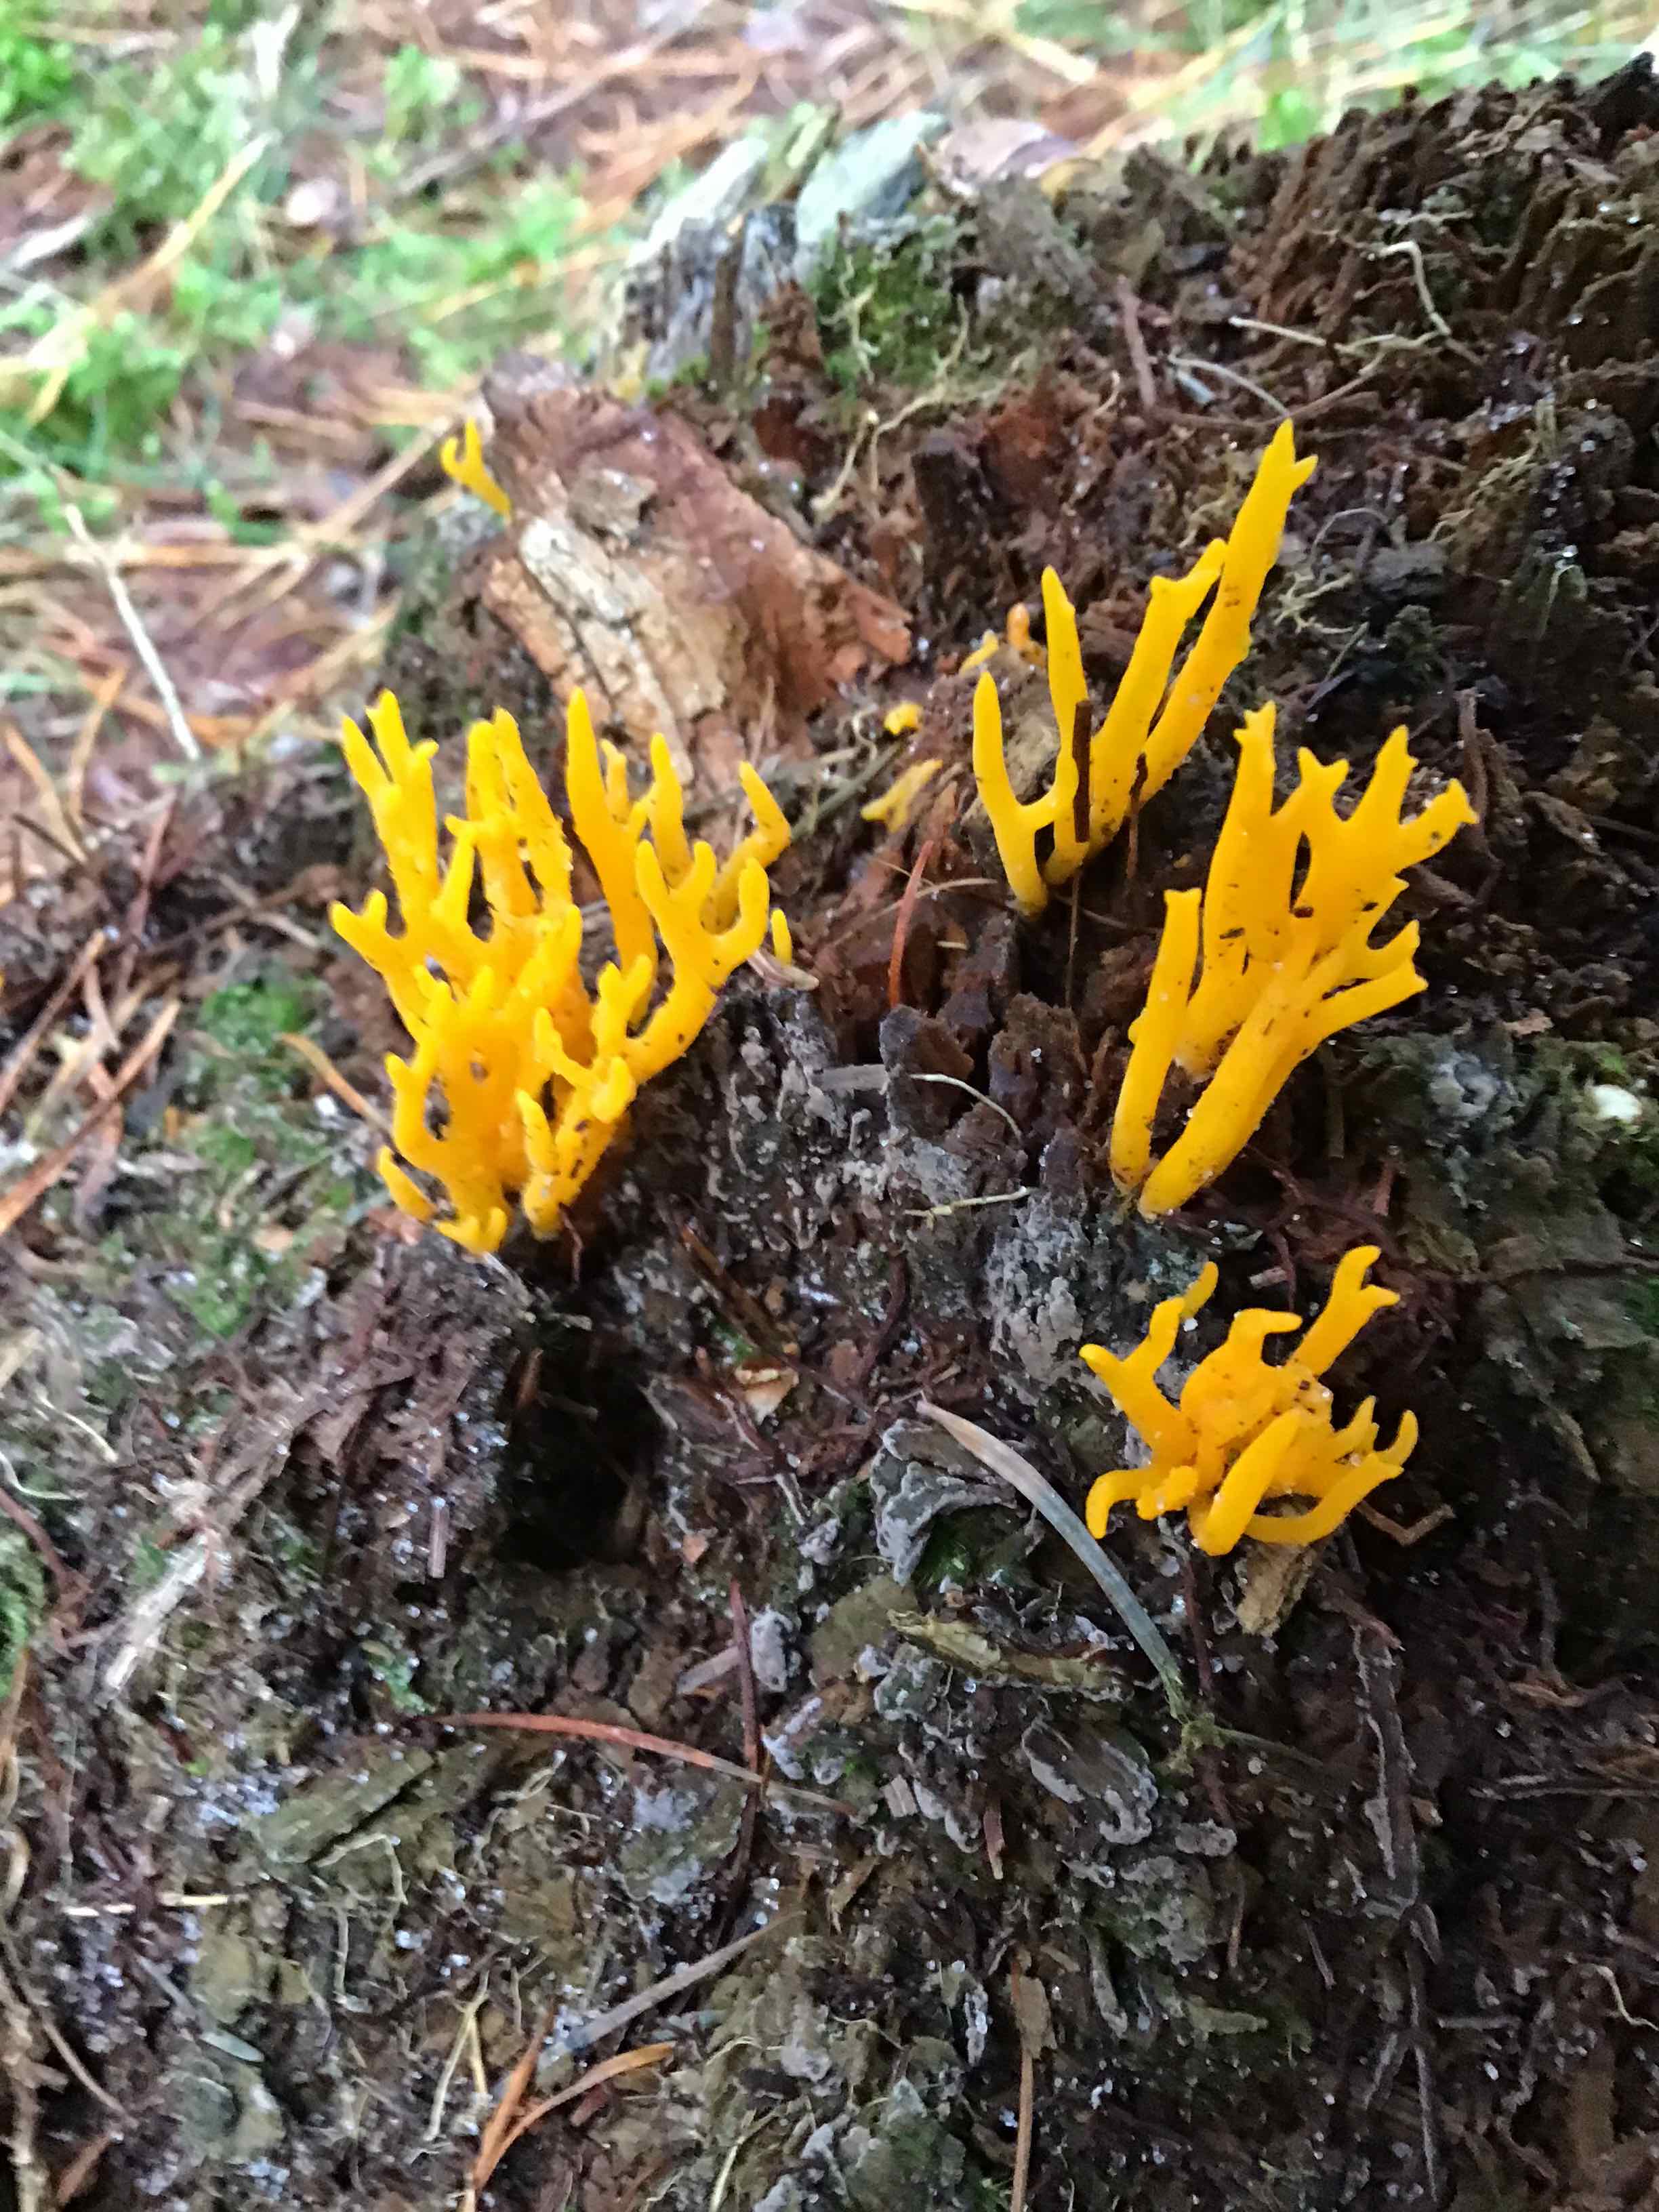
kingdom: Fungi
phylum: Basidiomycota
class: Dacrymycetes
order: Dacrymycetales
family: Dacrymycetaceae
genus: Calocera
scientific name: Calocera viscosa
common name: almindelig guldgaffel
